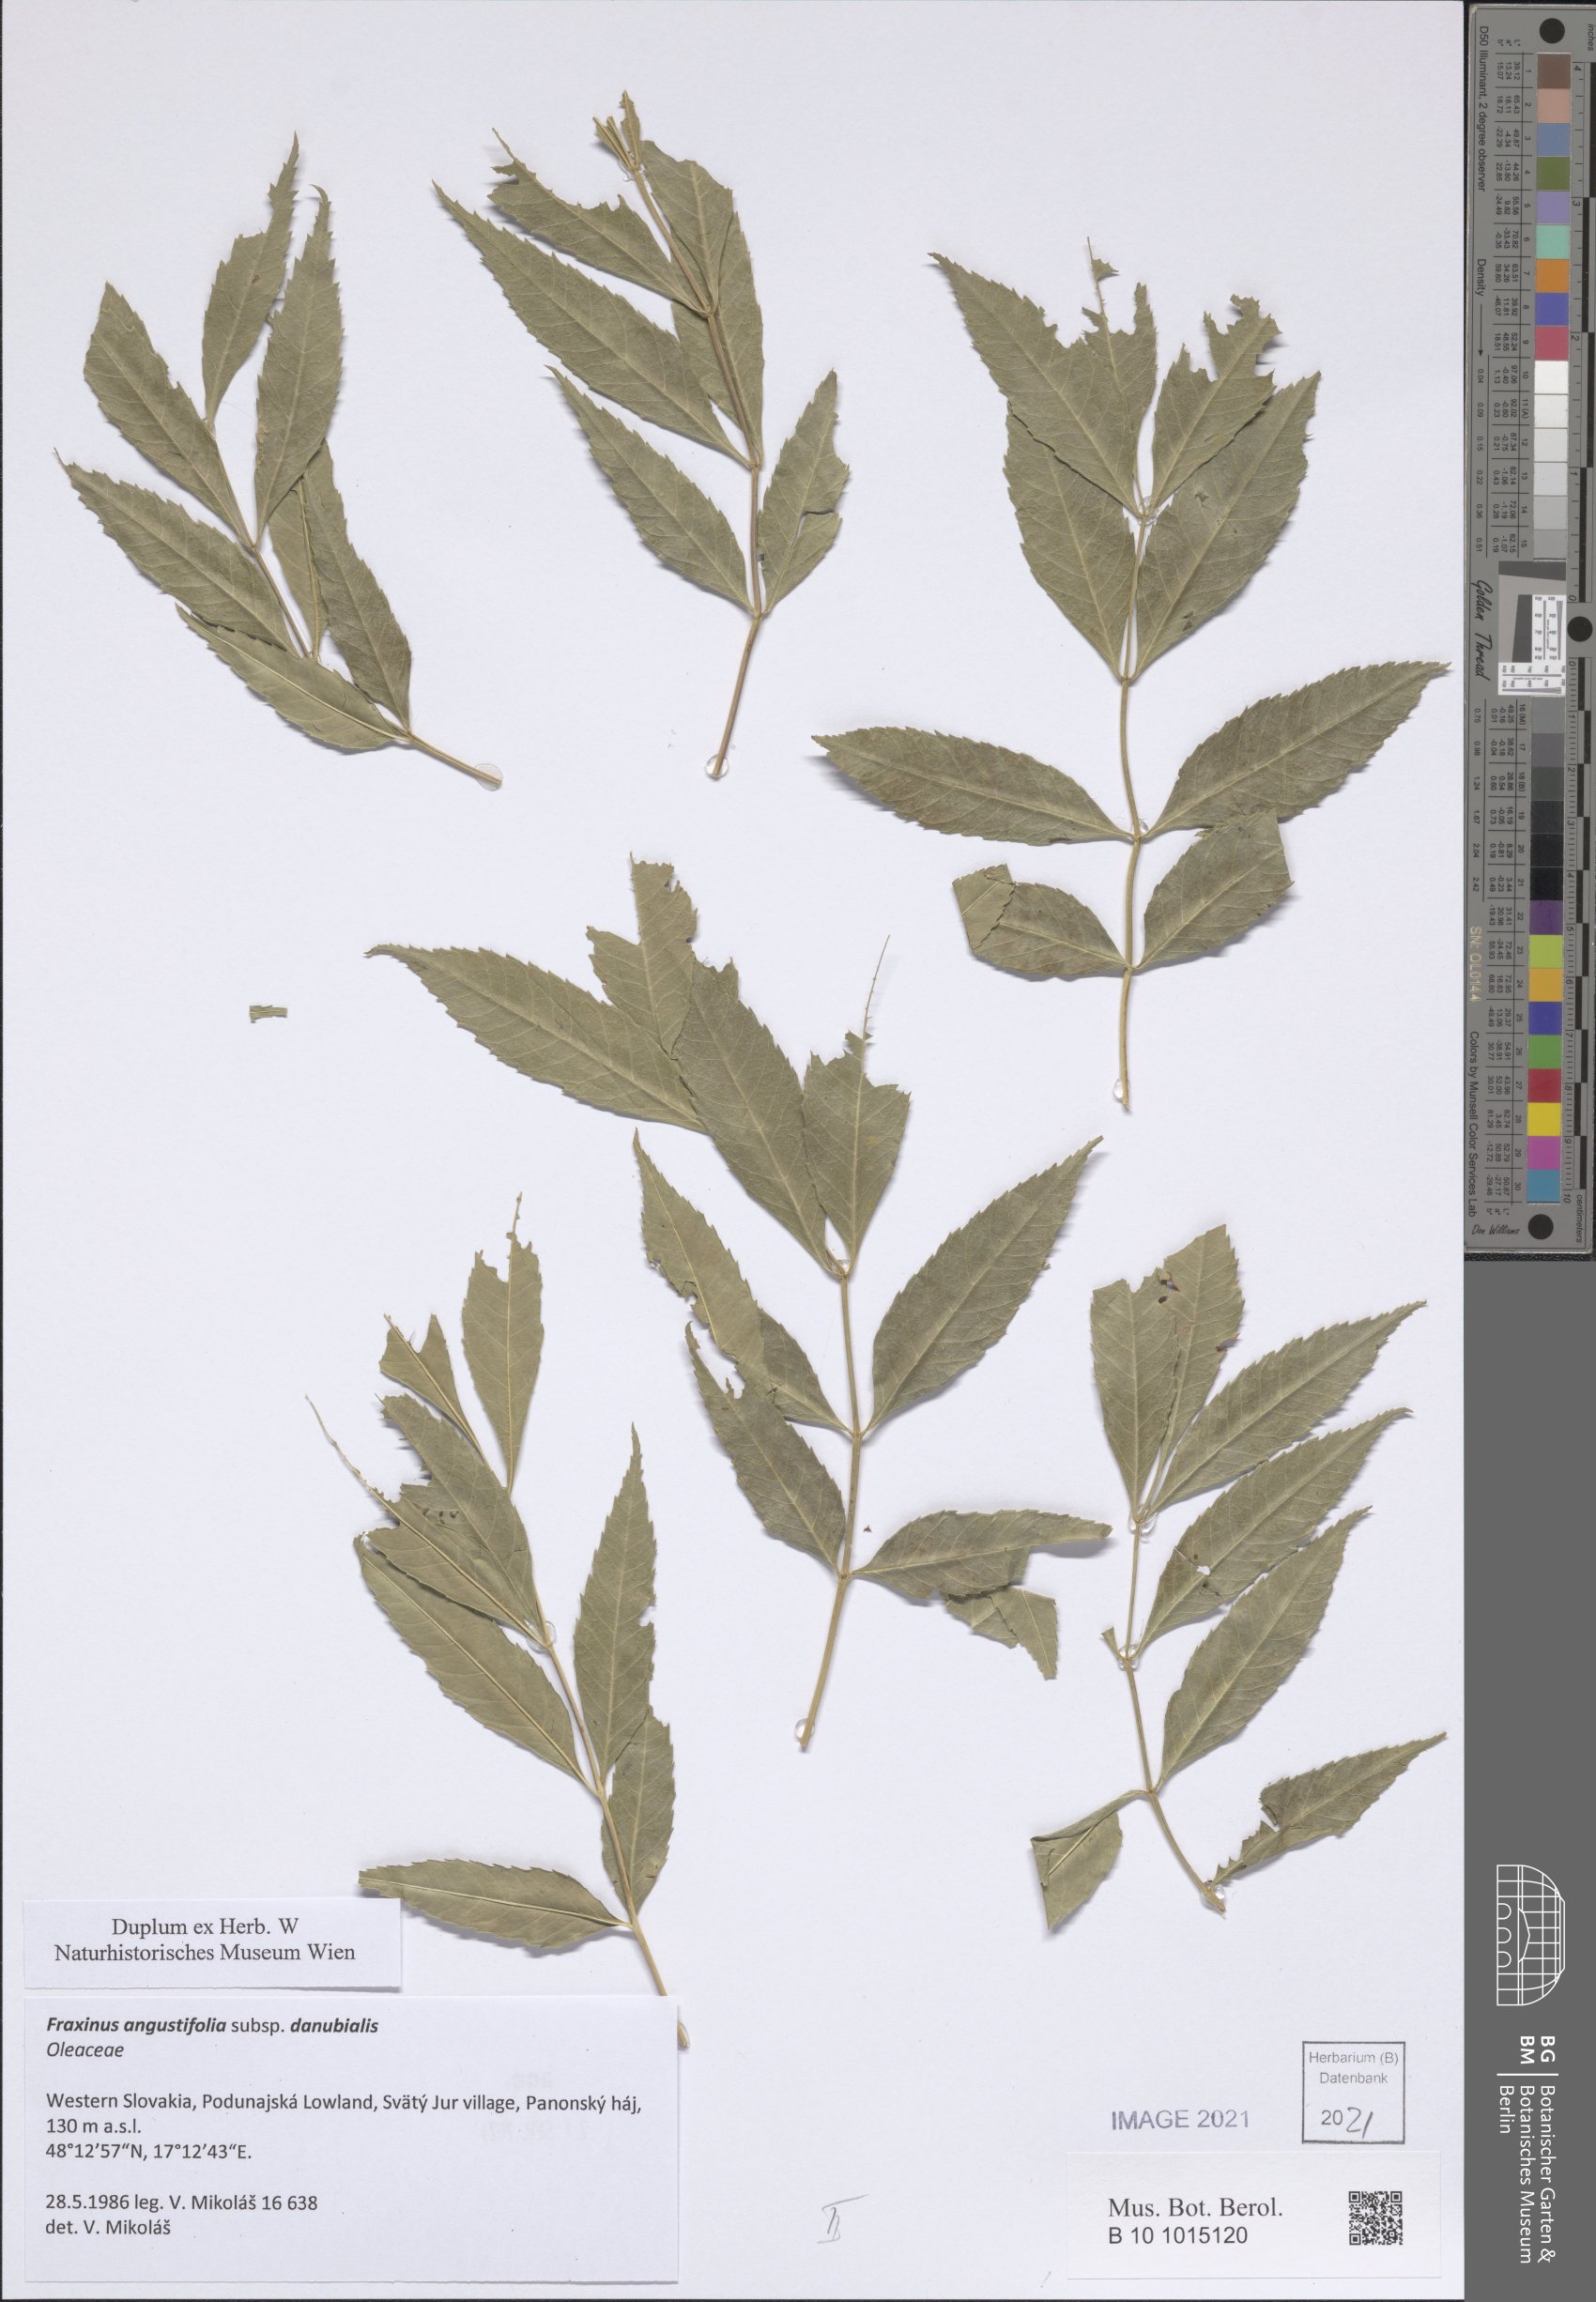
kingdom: Plantae
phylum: Tracheophyta
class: Magnoliopsida
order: Lamiales
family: Oleaceae
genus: Fraxinus
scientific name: Fraxinus angustifolia
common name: Narrow-leafed ash
